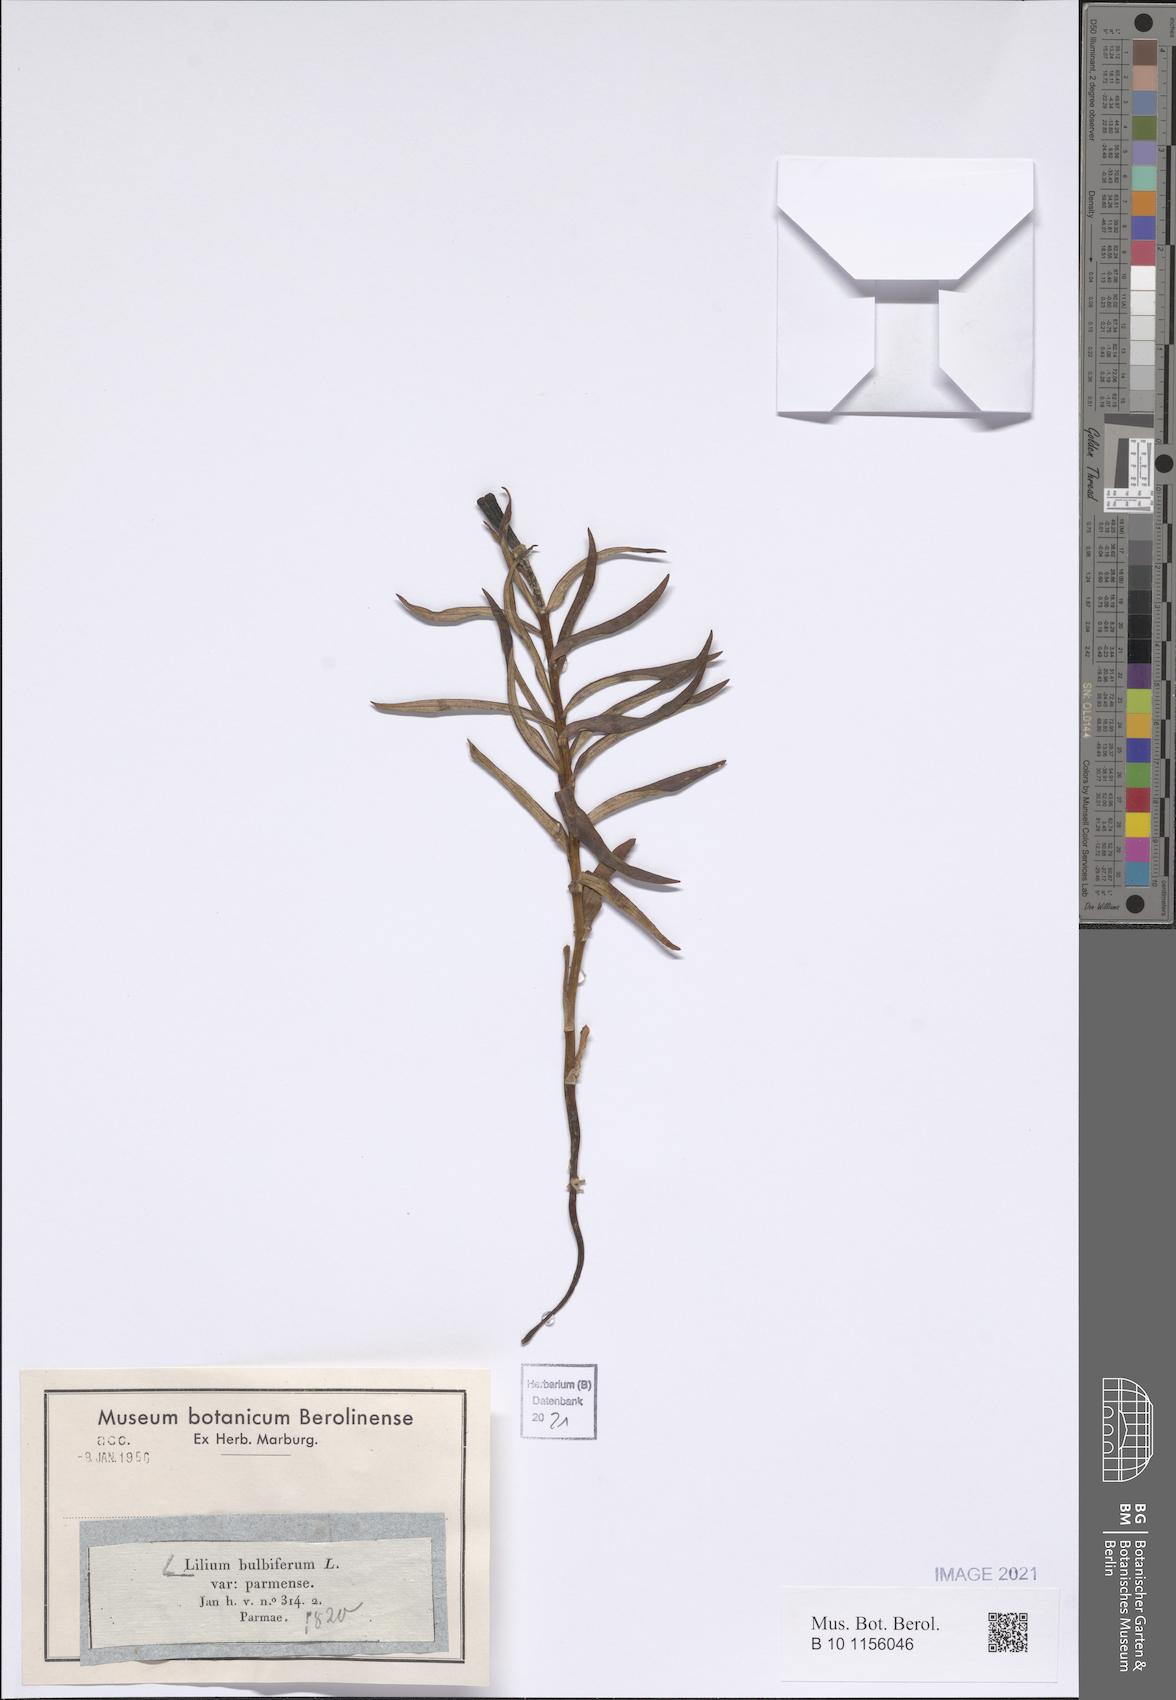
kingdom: Plantae
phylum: Tracheophyta
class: Liliopsida
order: Liliales
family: Liliaceae
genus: Lilium
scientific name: Lilium bulbiferum
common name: Orange lily
